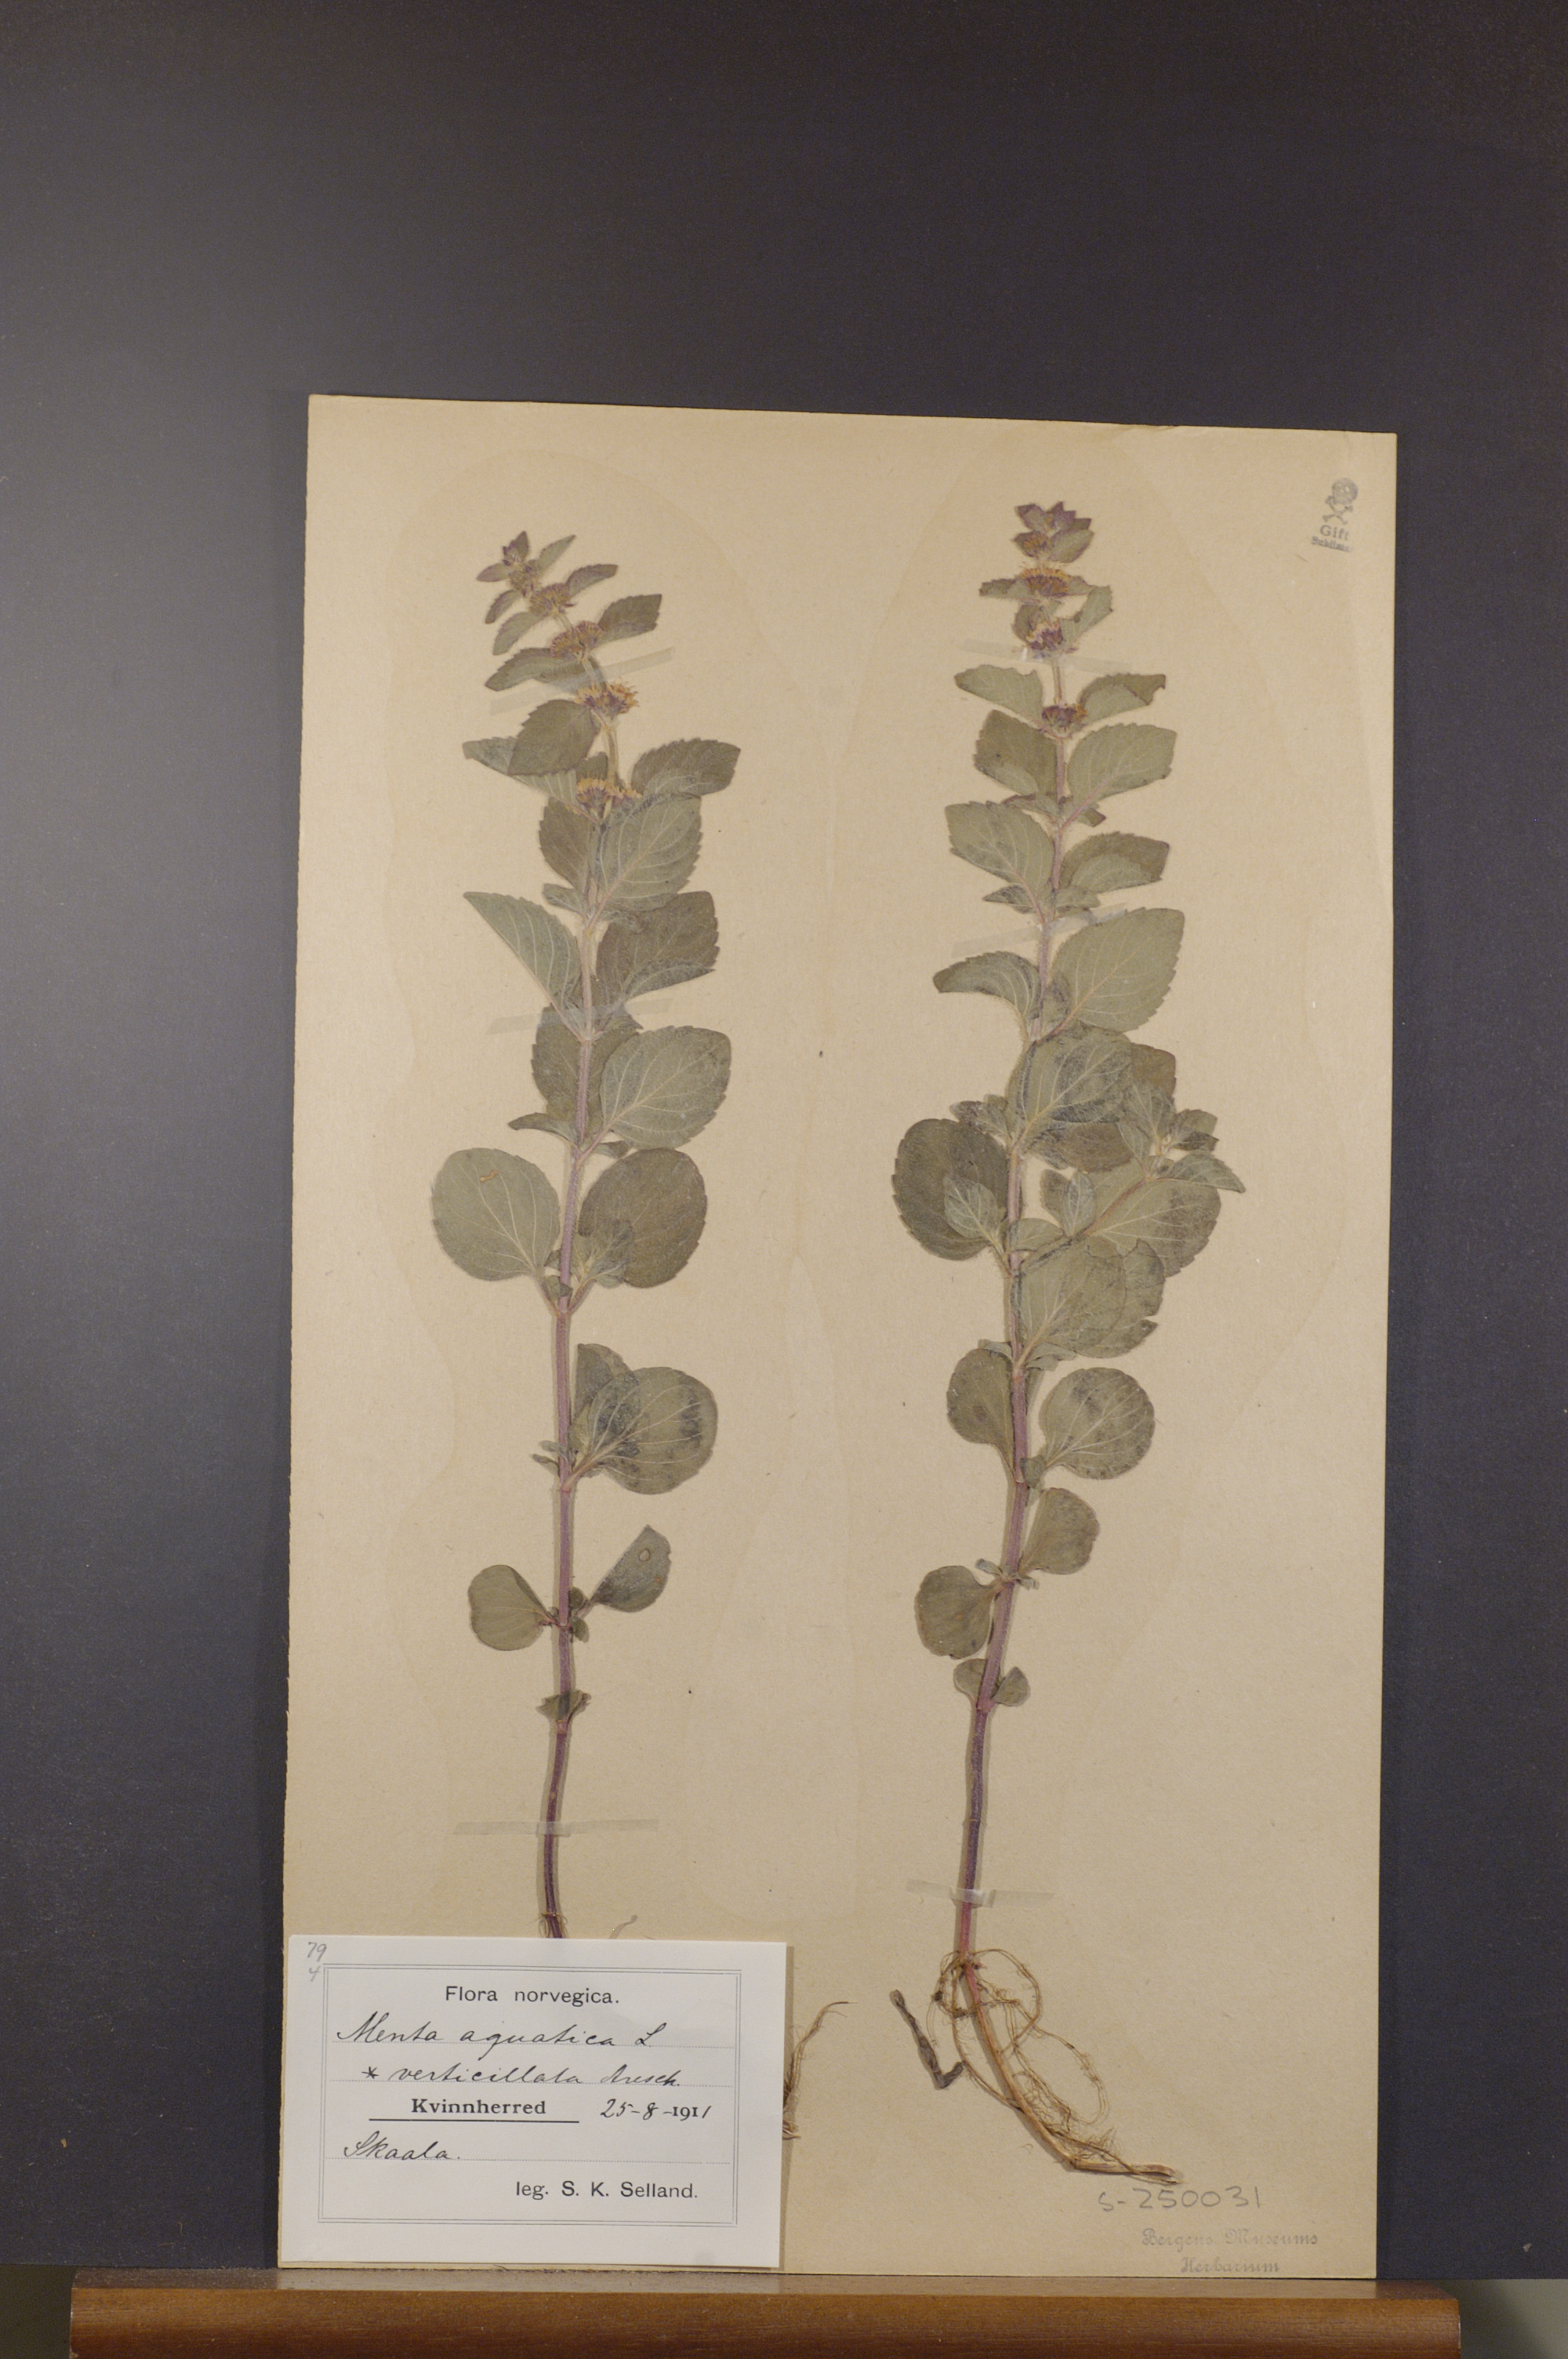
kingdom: Plantae
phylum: Tracheophyta
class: Magnoliopsida
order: Lamiales
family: Lamiaceae
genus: Mentha
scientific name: Mentha aquatica
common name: Water mint
